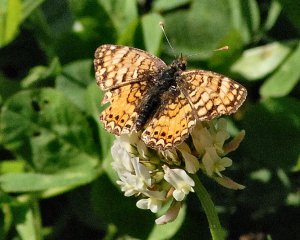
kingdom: Animalia
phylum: Arthropoda
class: Insecta
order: Lepidoptera
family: Nymphalidae
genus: Eresia
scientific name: Eresia aveyrona
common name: Mylitta Crescent
